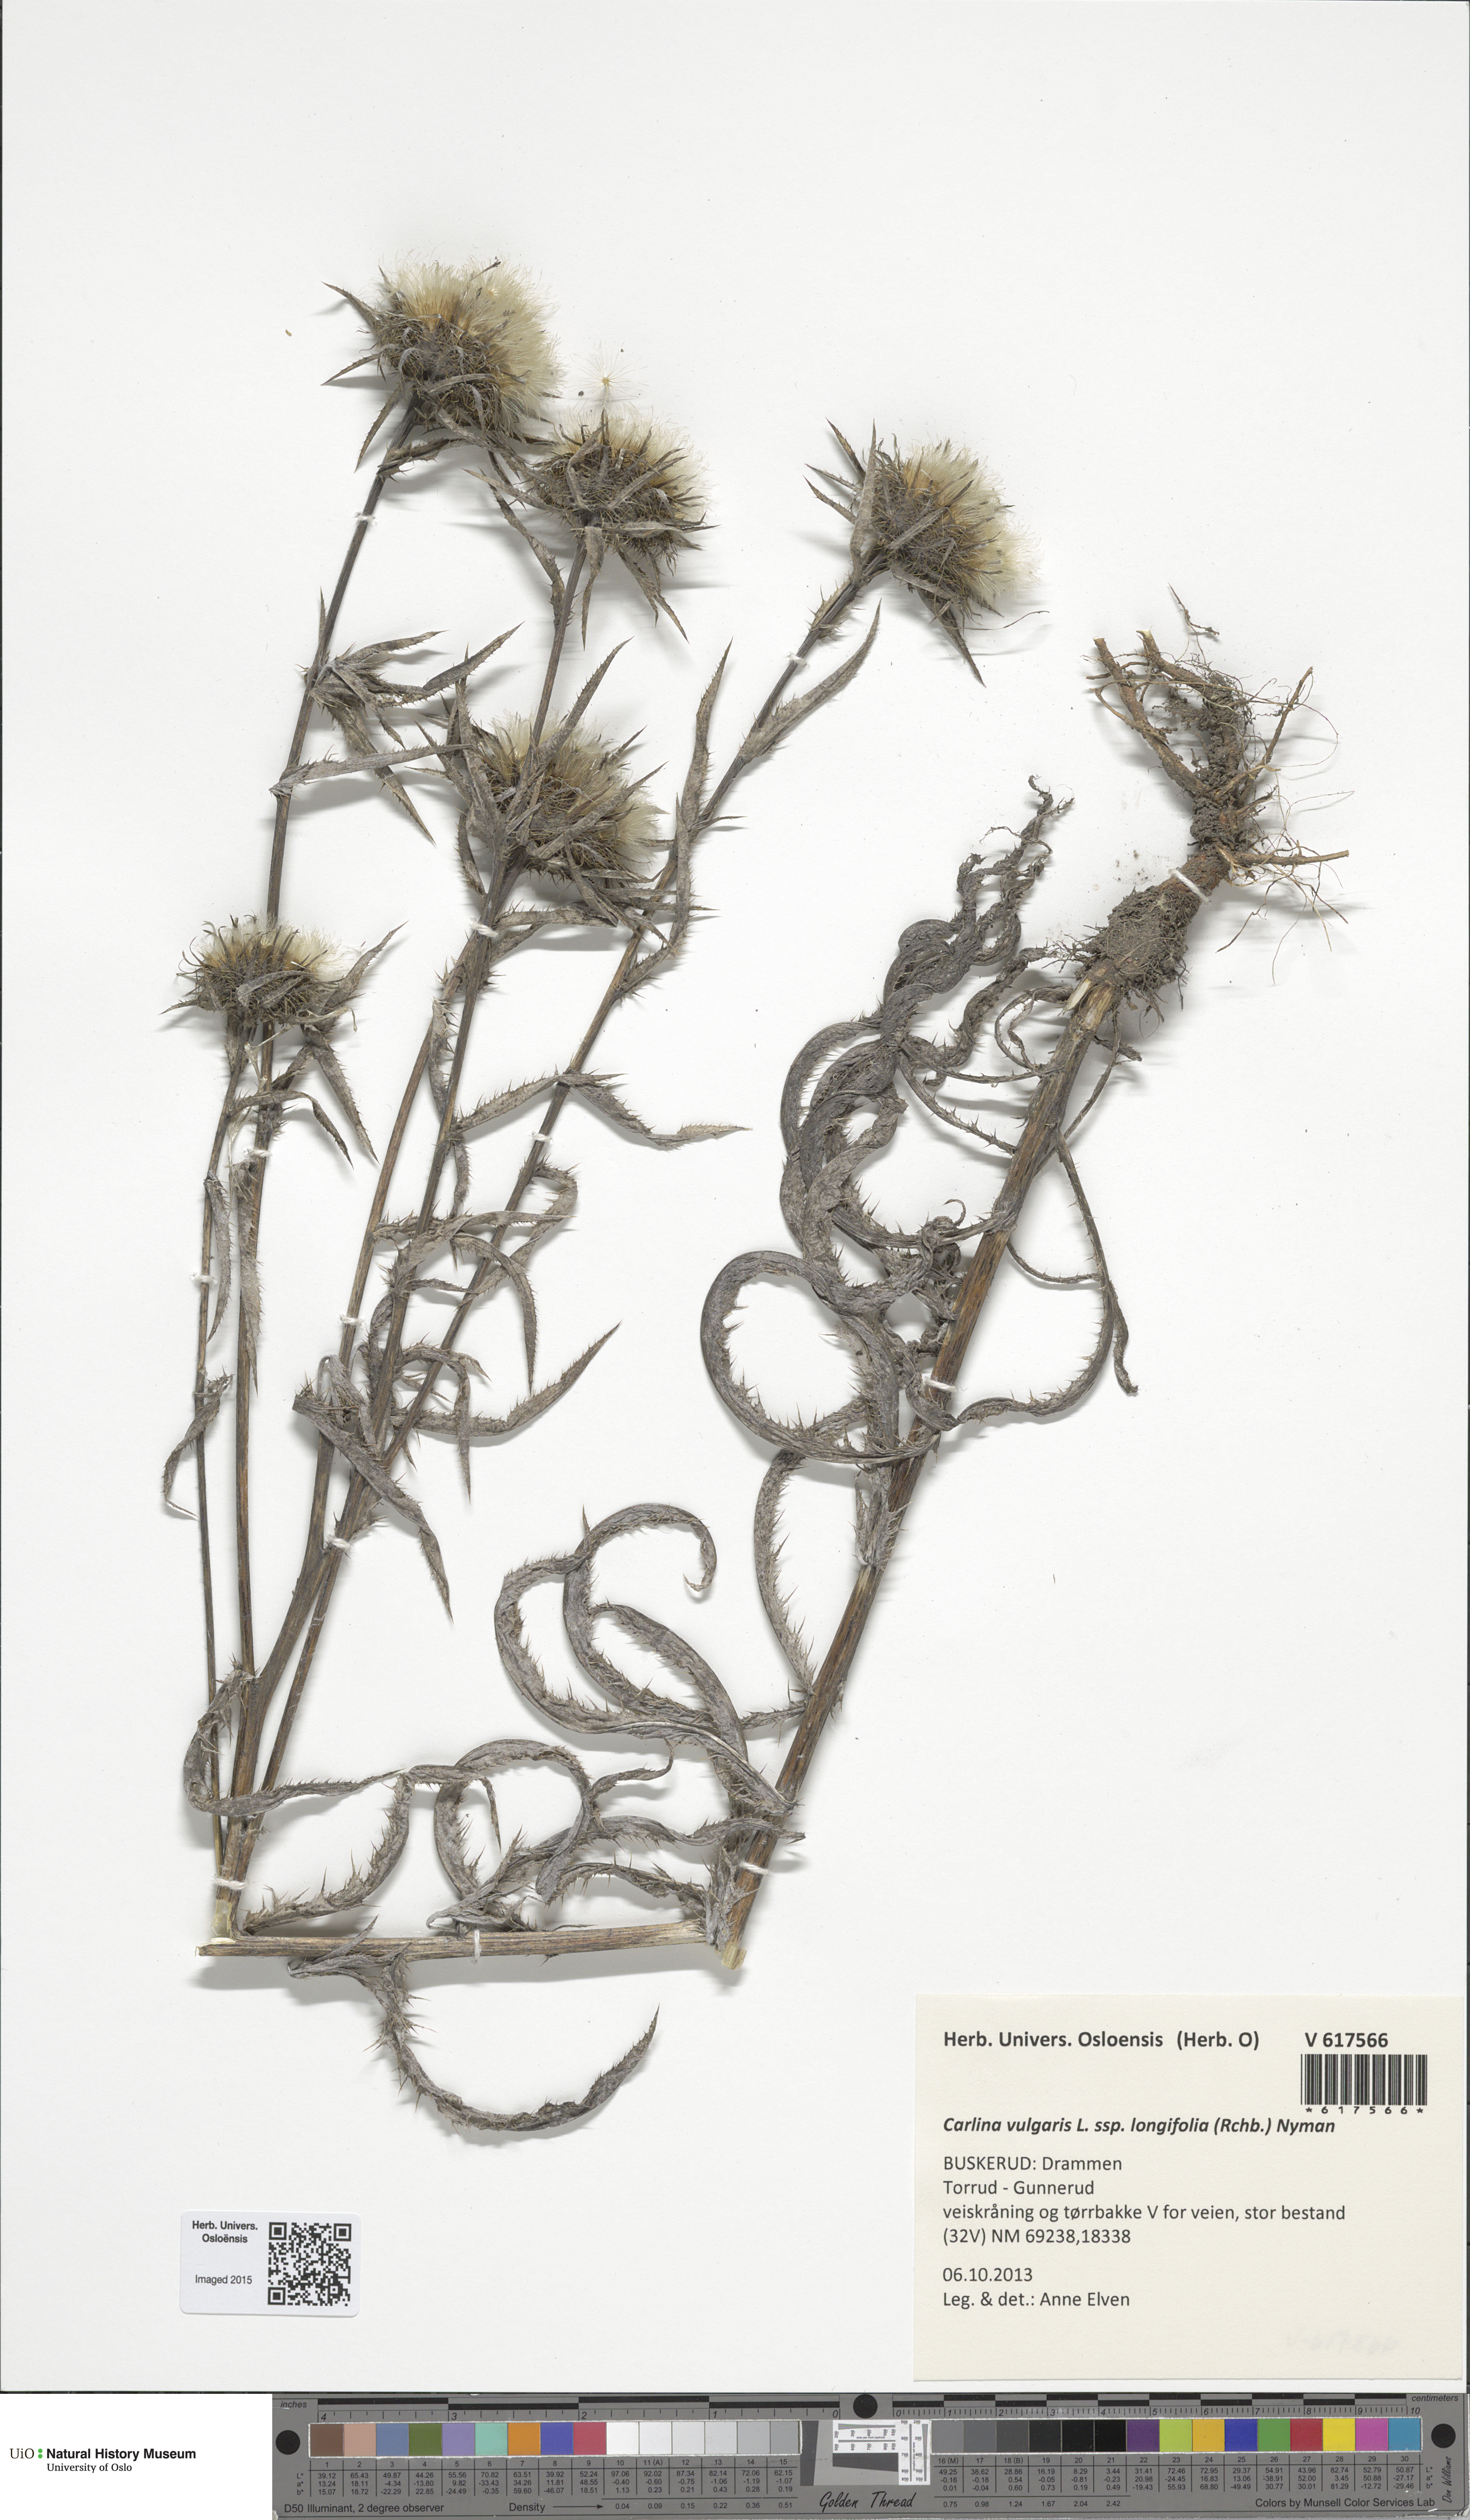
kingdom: Plantae
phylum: Tracheophyta
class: Magnoliopsida
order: Asterales
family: Asteraceae
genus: Carlina
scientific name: Carlina biebersteinii
